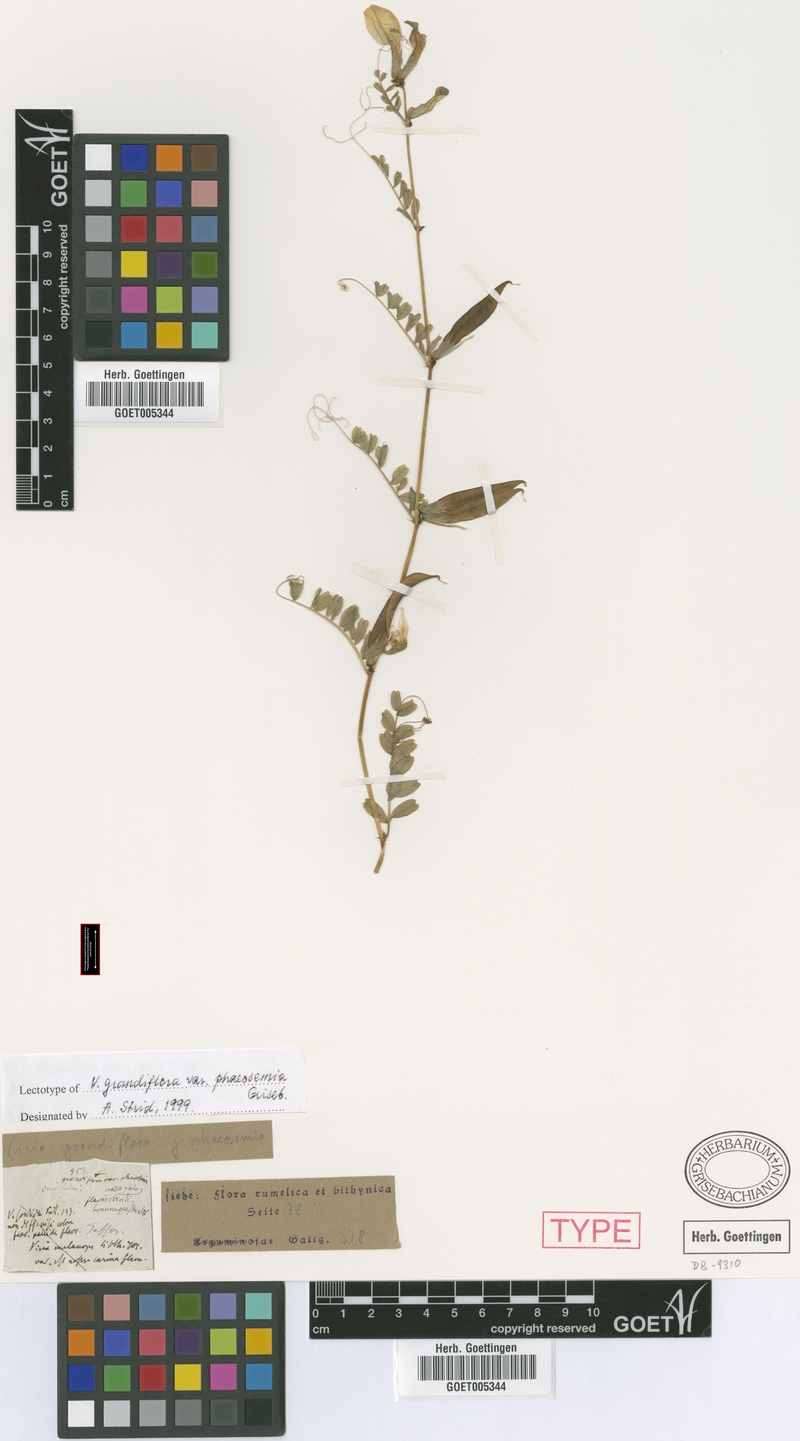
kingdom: Plantae
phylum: Tracheophyta
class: Magnoliopsida
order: Fabales
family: Fabaceae
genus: Vicia
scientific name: Vicia grandiflora
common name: Large yellow vetch
